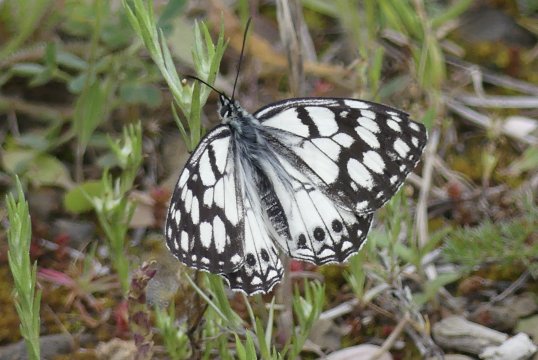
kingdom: Animalia
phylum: Arthropoda
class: Insecta
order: Lepidoptera
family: Nymphalidae
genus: Melanargia
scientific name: Melanargia ines
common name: Spanish Marbled White
